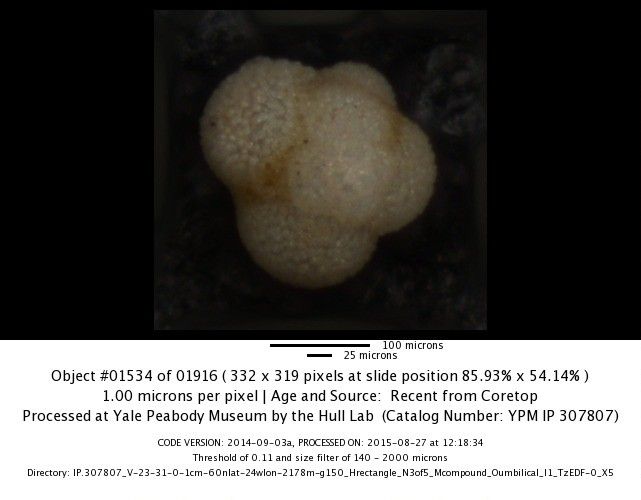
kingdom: Chromista
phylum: Foraminifera
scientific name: Foraminifera
